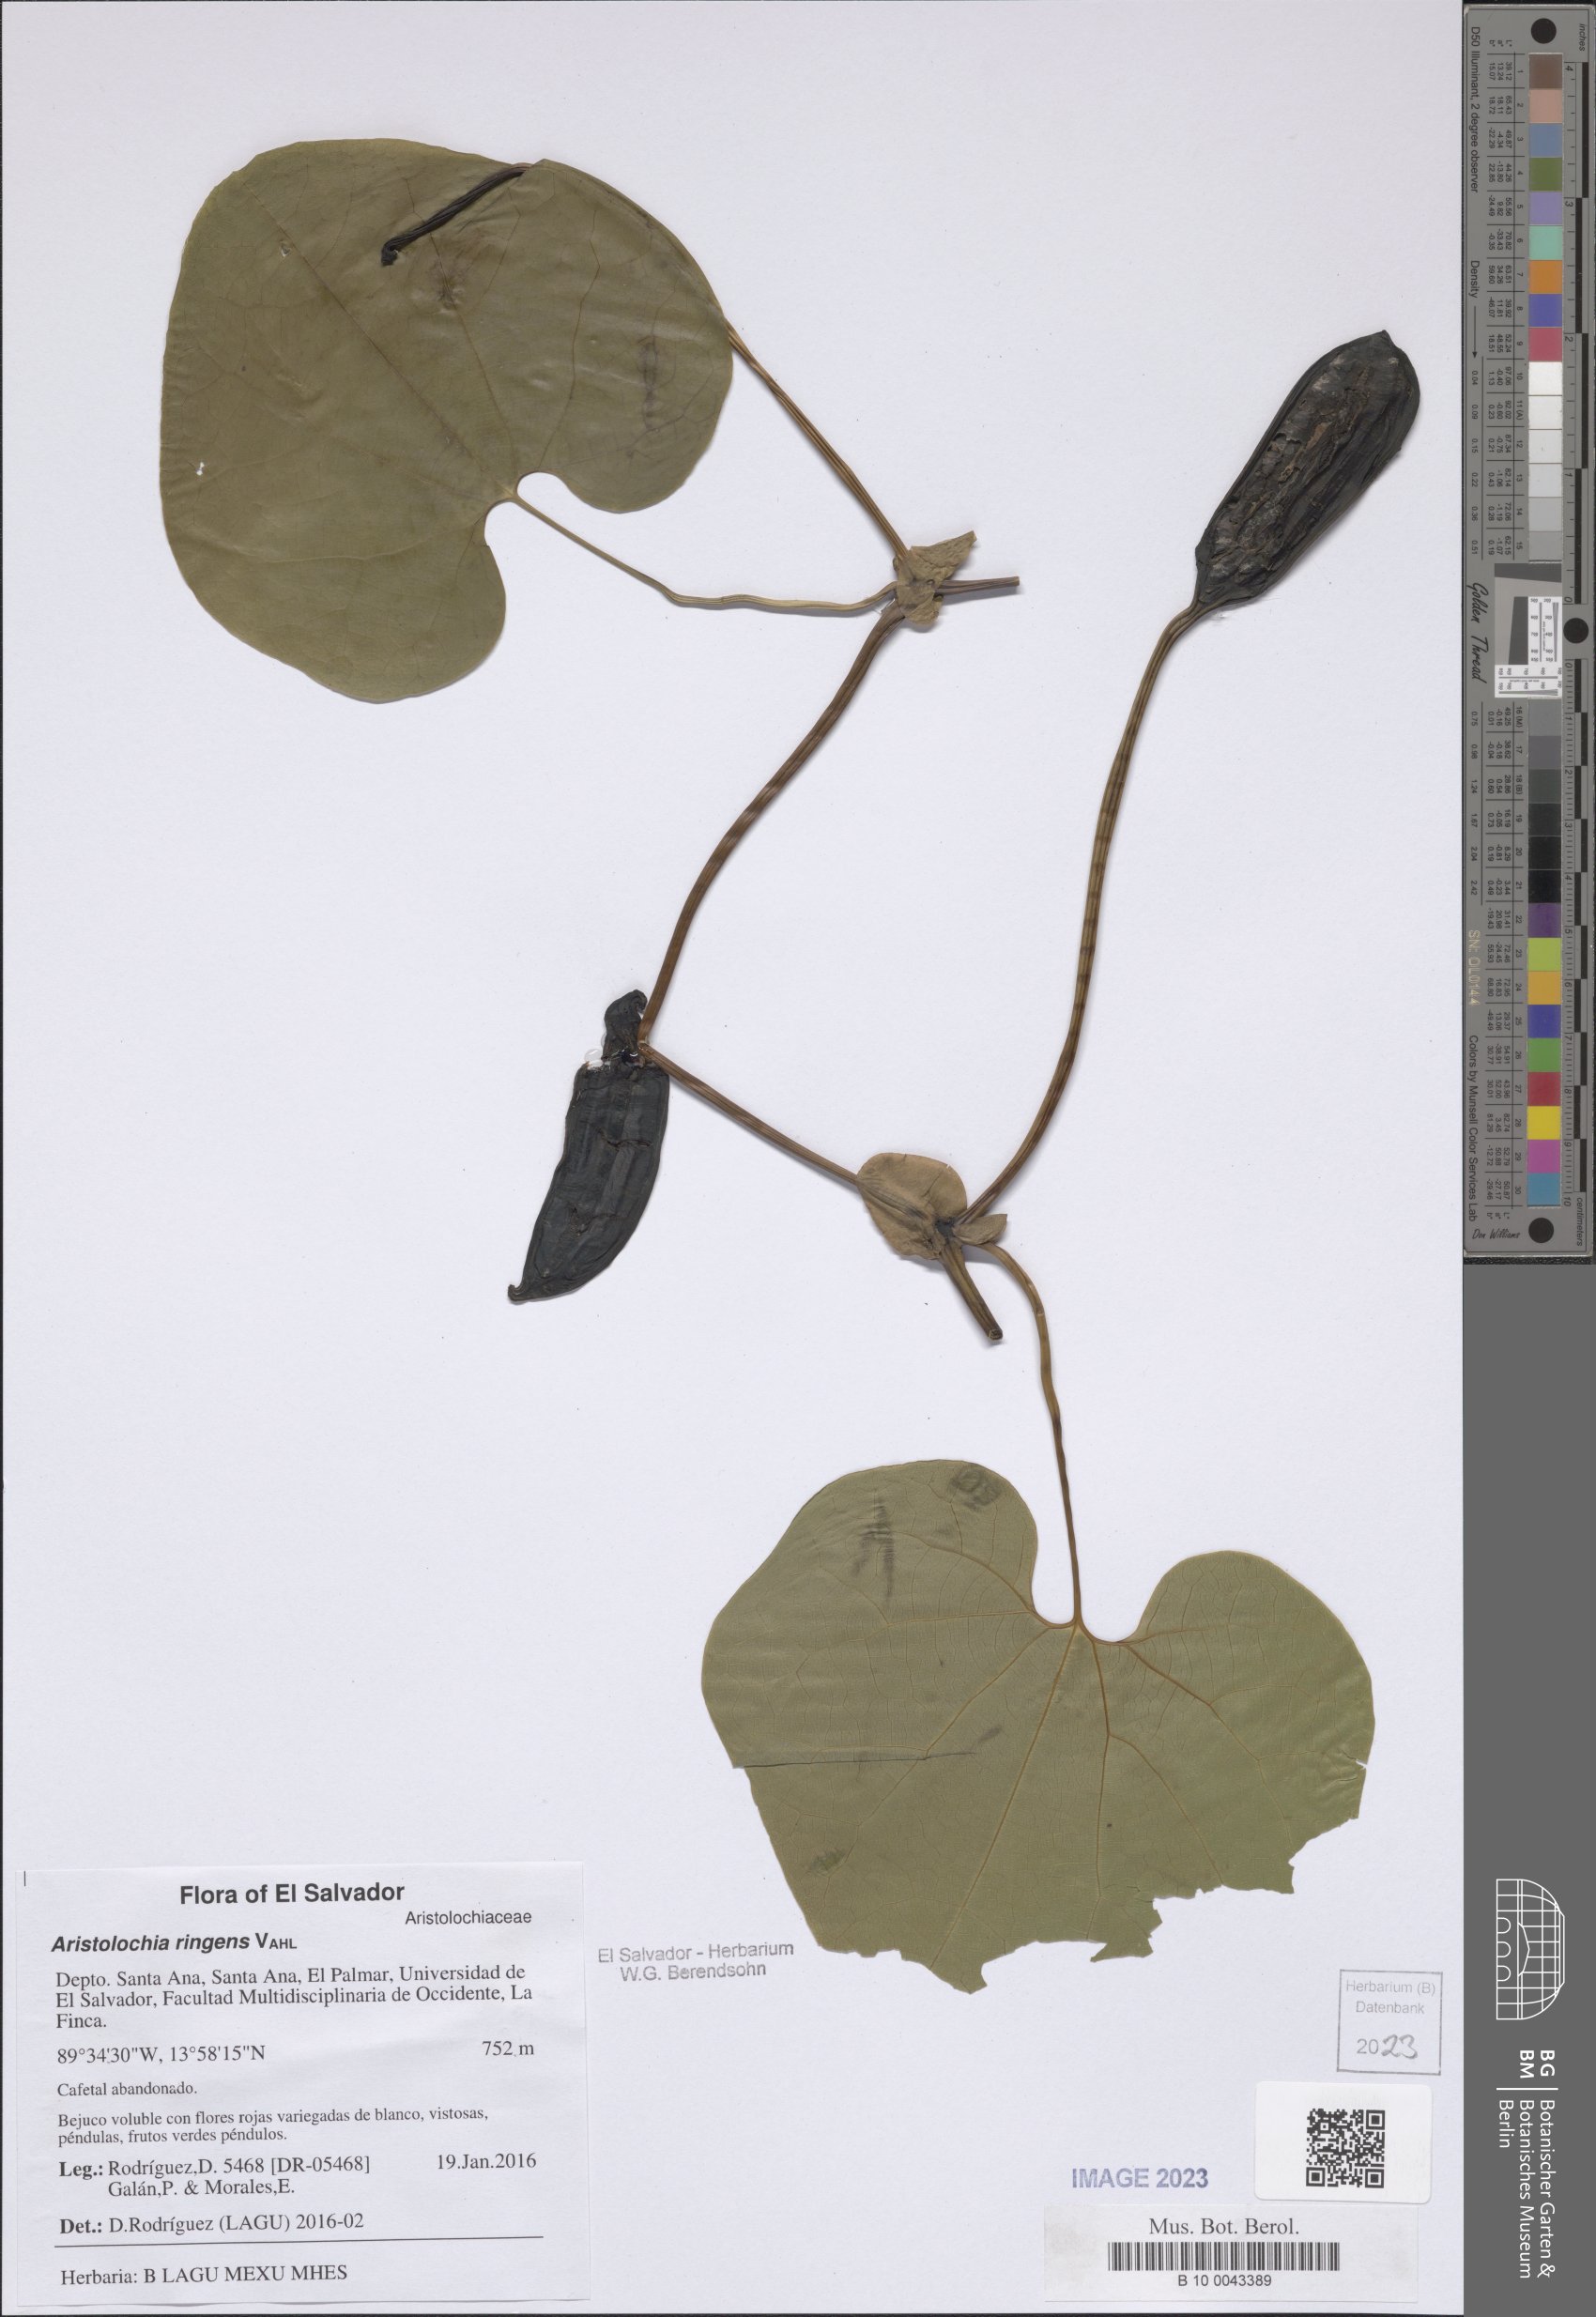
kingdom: Plantae
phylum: Tracheophyta
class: Magnoliopsida
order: Piperales
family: Aristolochiaceae
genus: Aristolochia
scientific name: Aristolochia ringens
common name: Gaping dutchman's pipe
